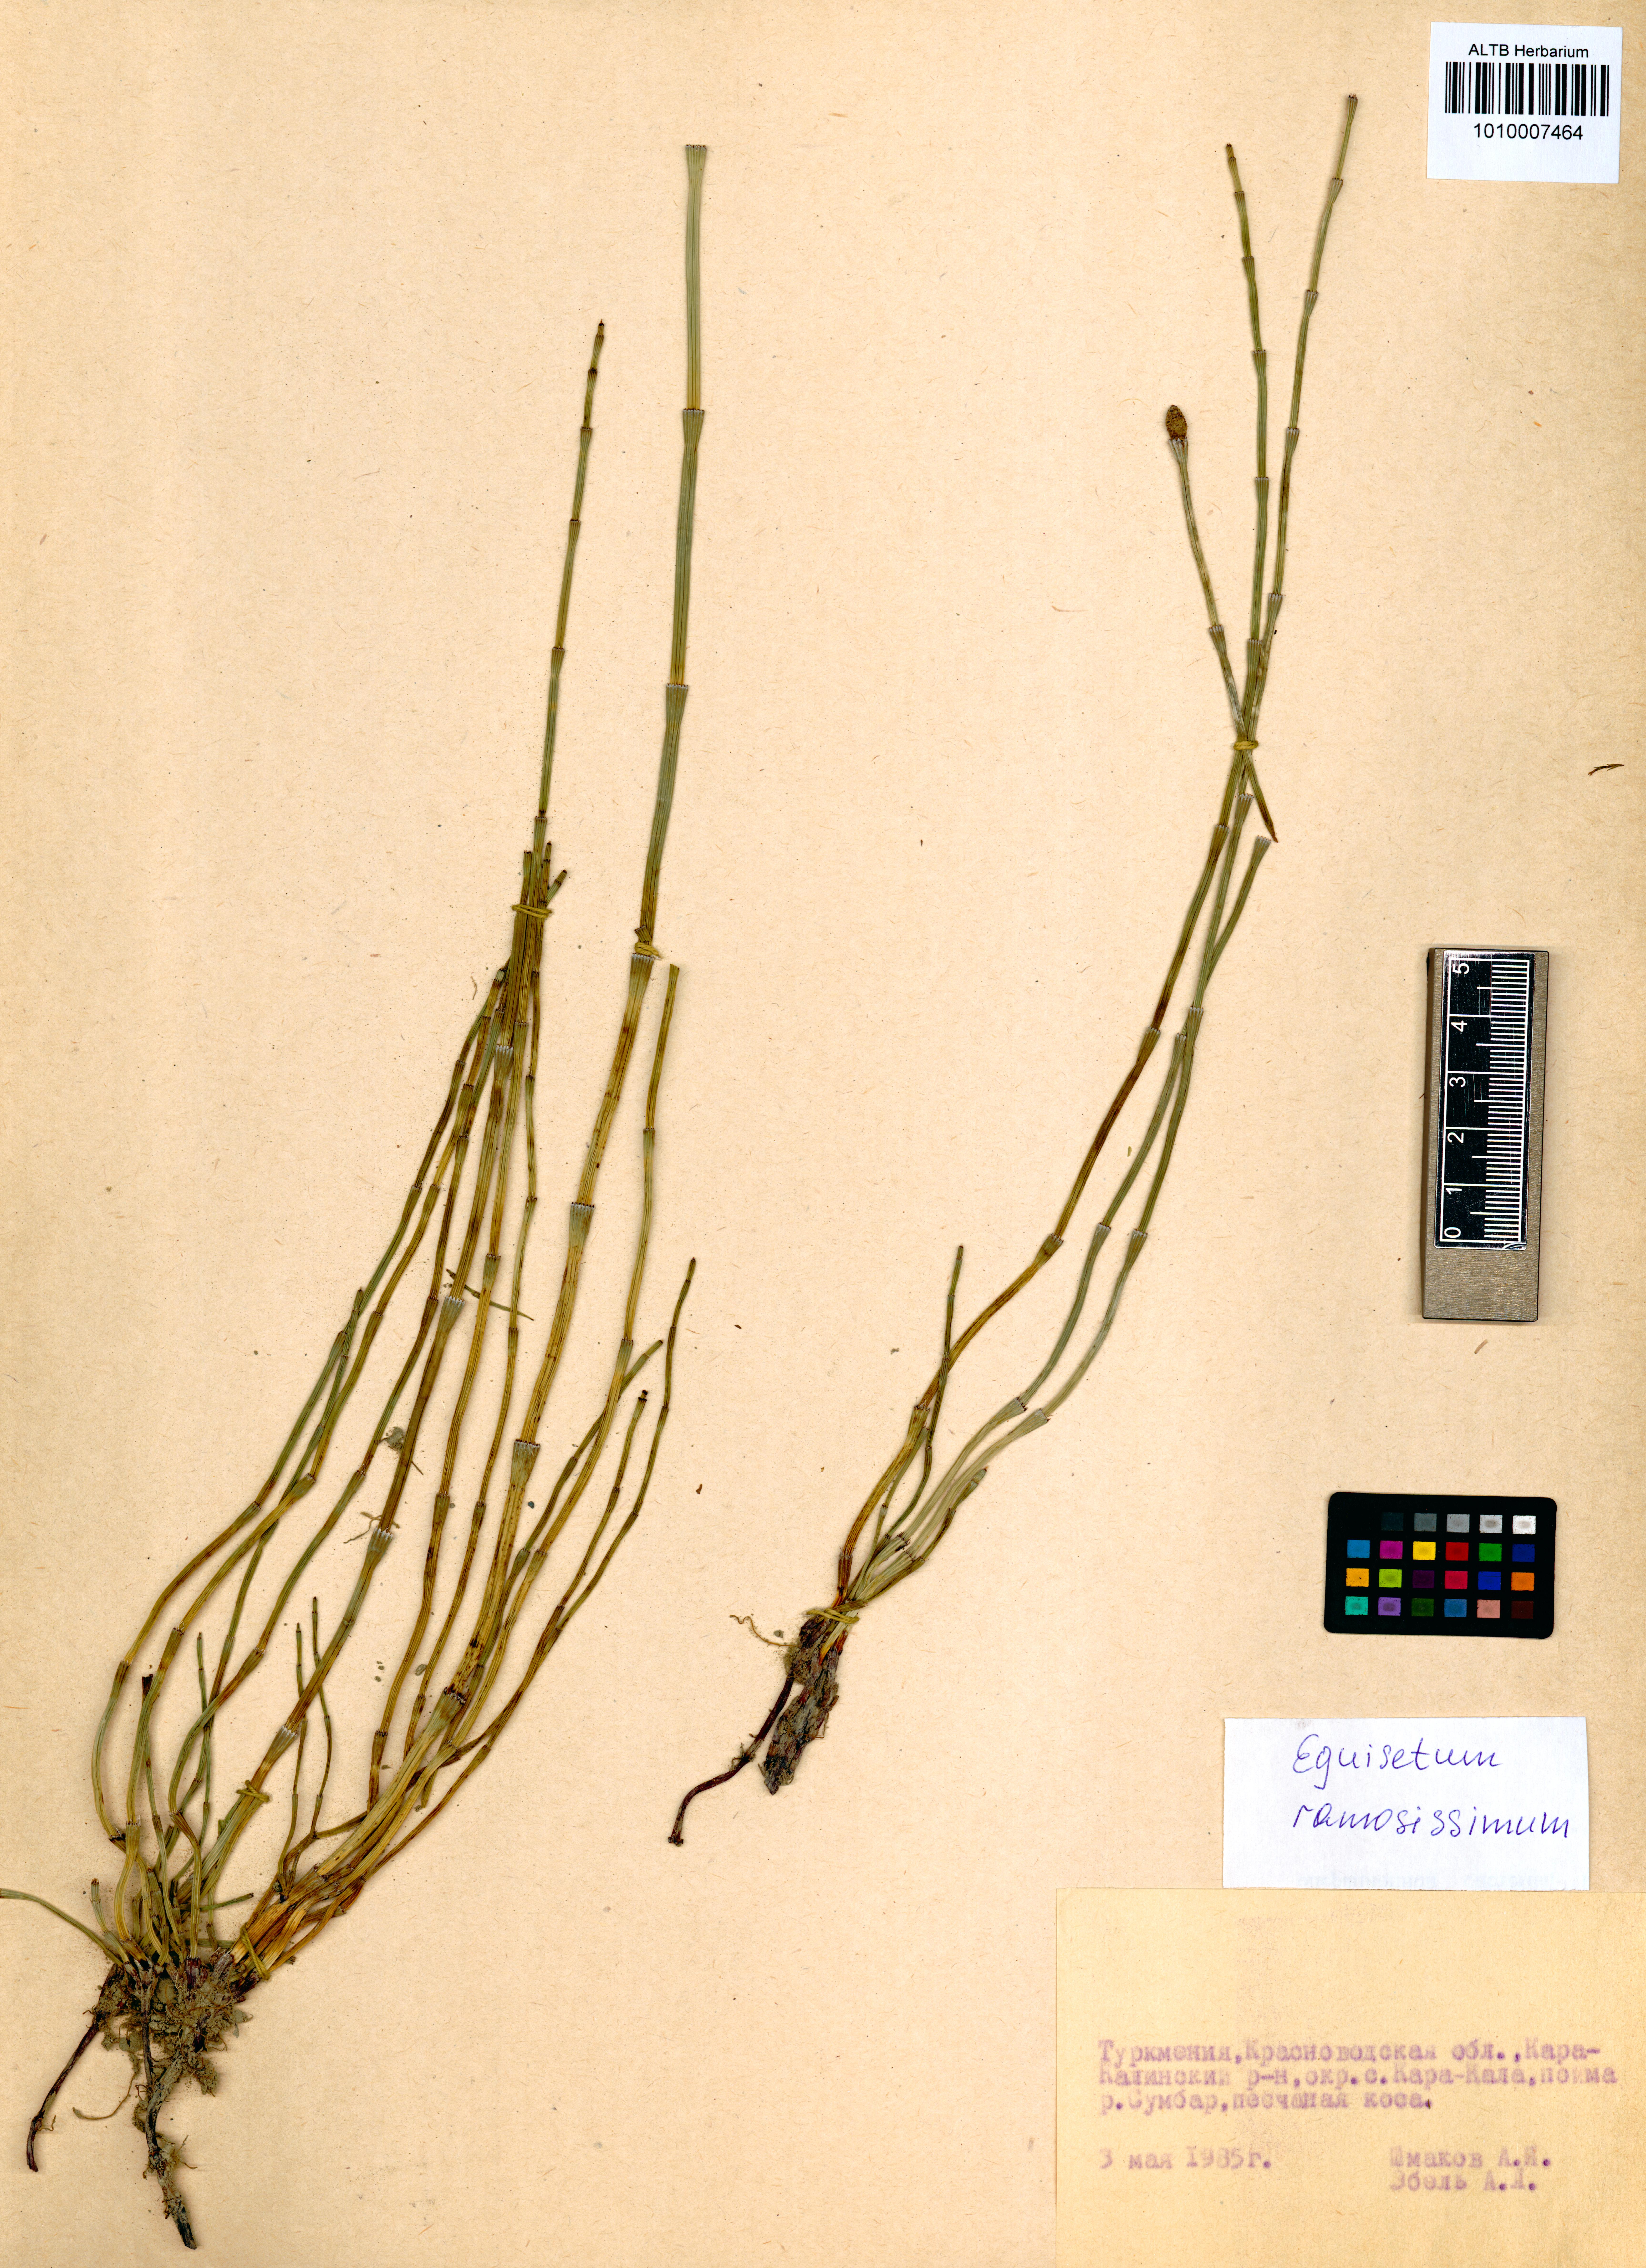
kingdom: Plantae
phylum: Tracheophyta
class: Polypodiopsida
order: Equisetales
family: Equisetaceae
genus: Equisetum
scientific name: Equisetum ramosissimum
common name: Branched horsetail
